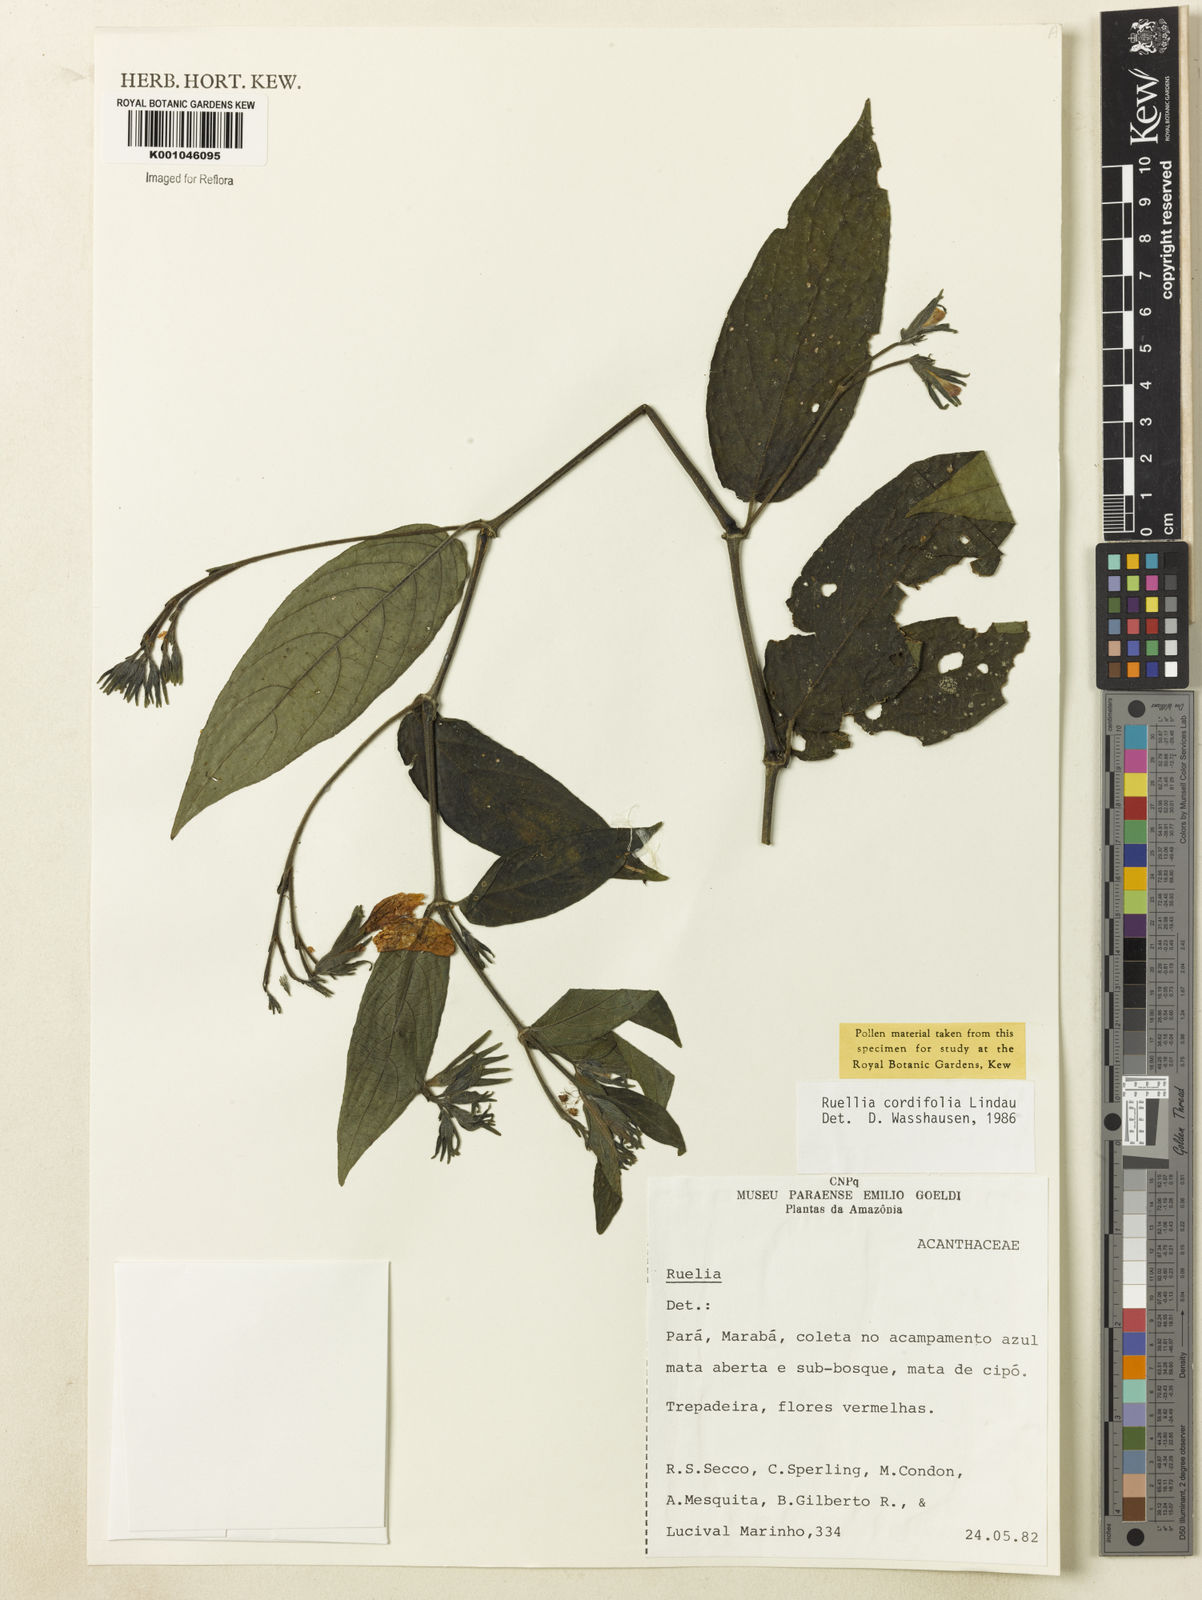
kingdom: Plantae
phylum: Tracheophyta
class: Magnoliopsida
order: Lamiales
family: Acanthaceae
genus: Ruellia
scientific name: Ruellia inflata
